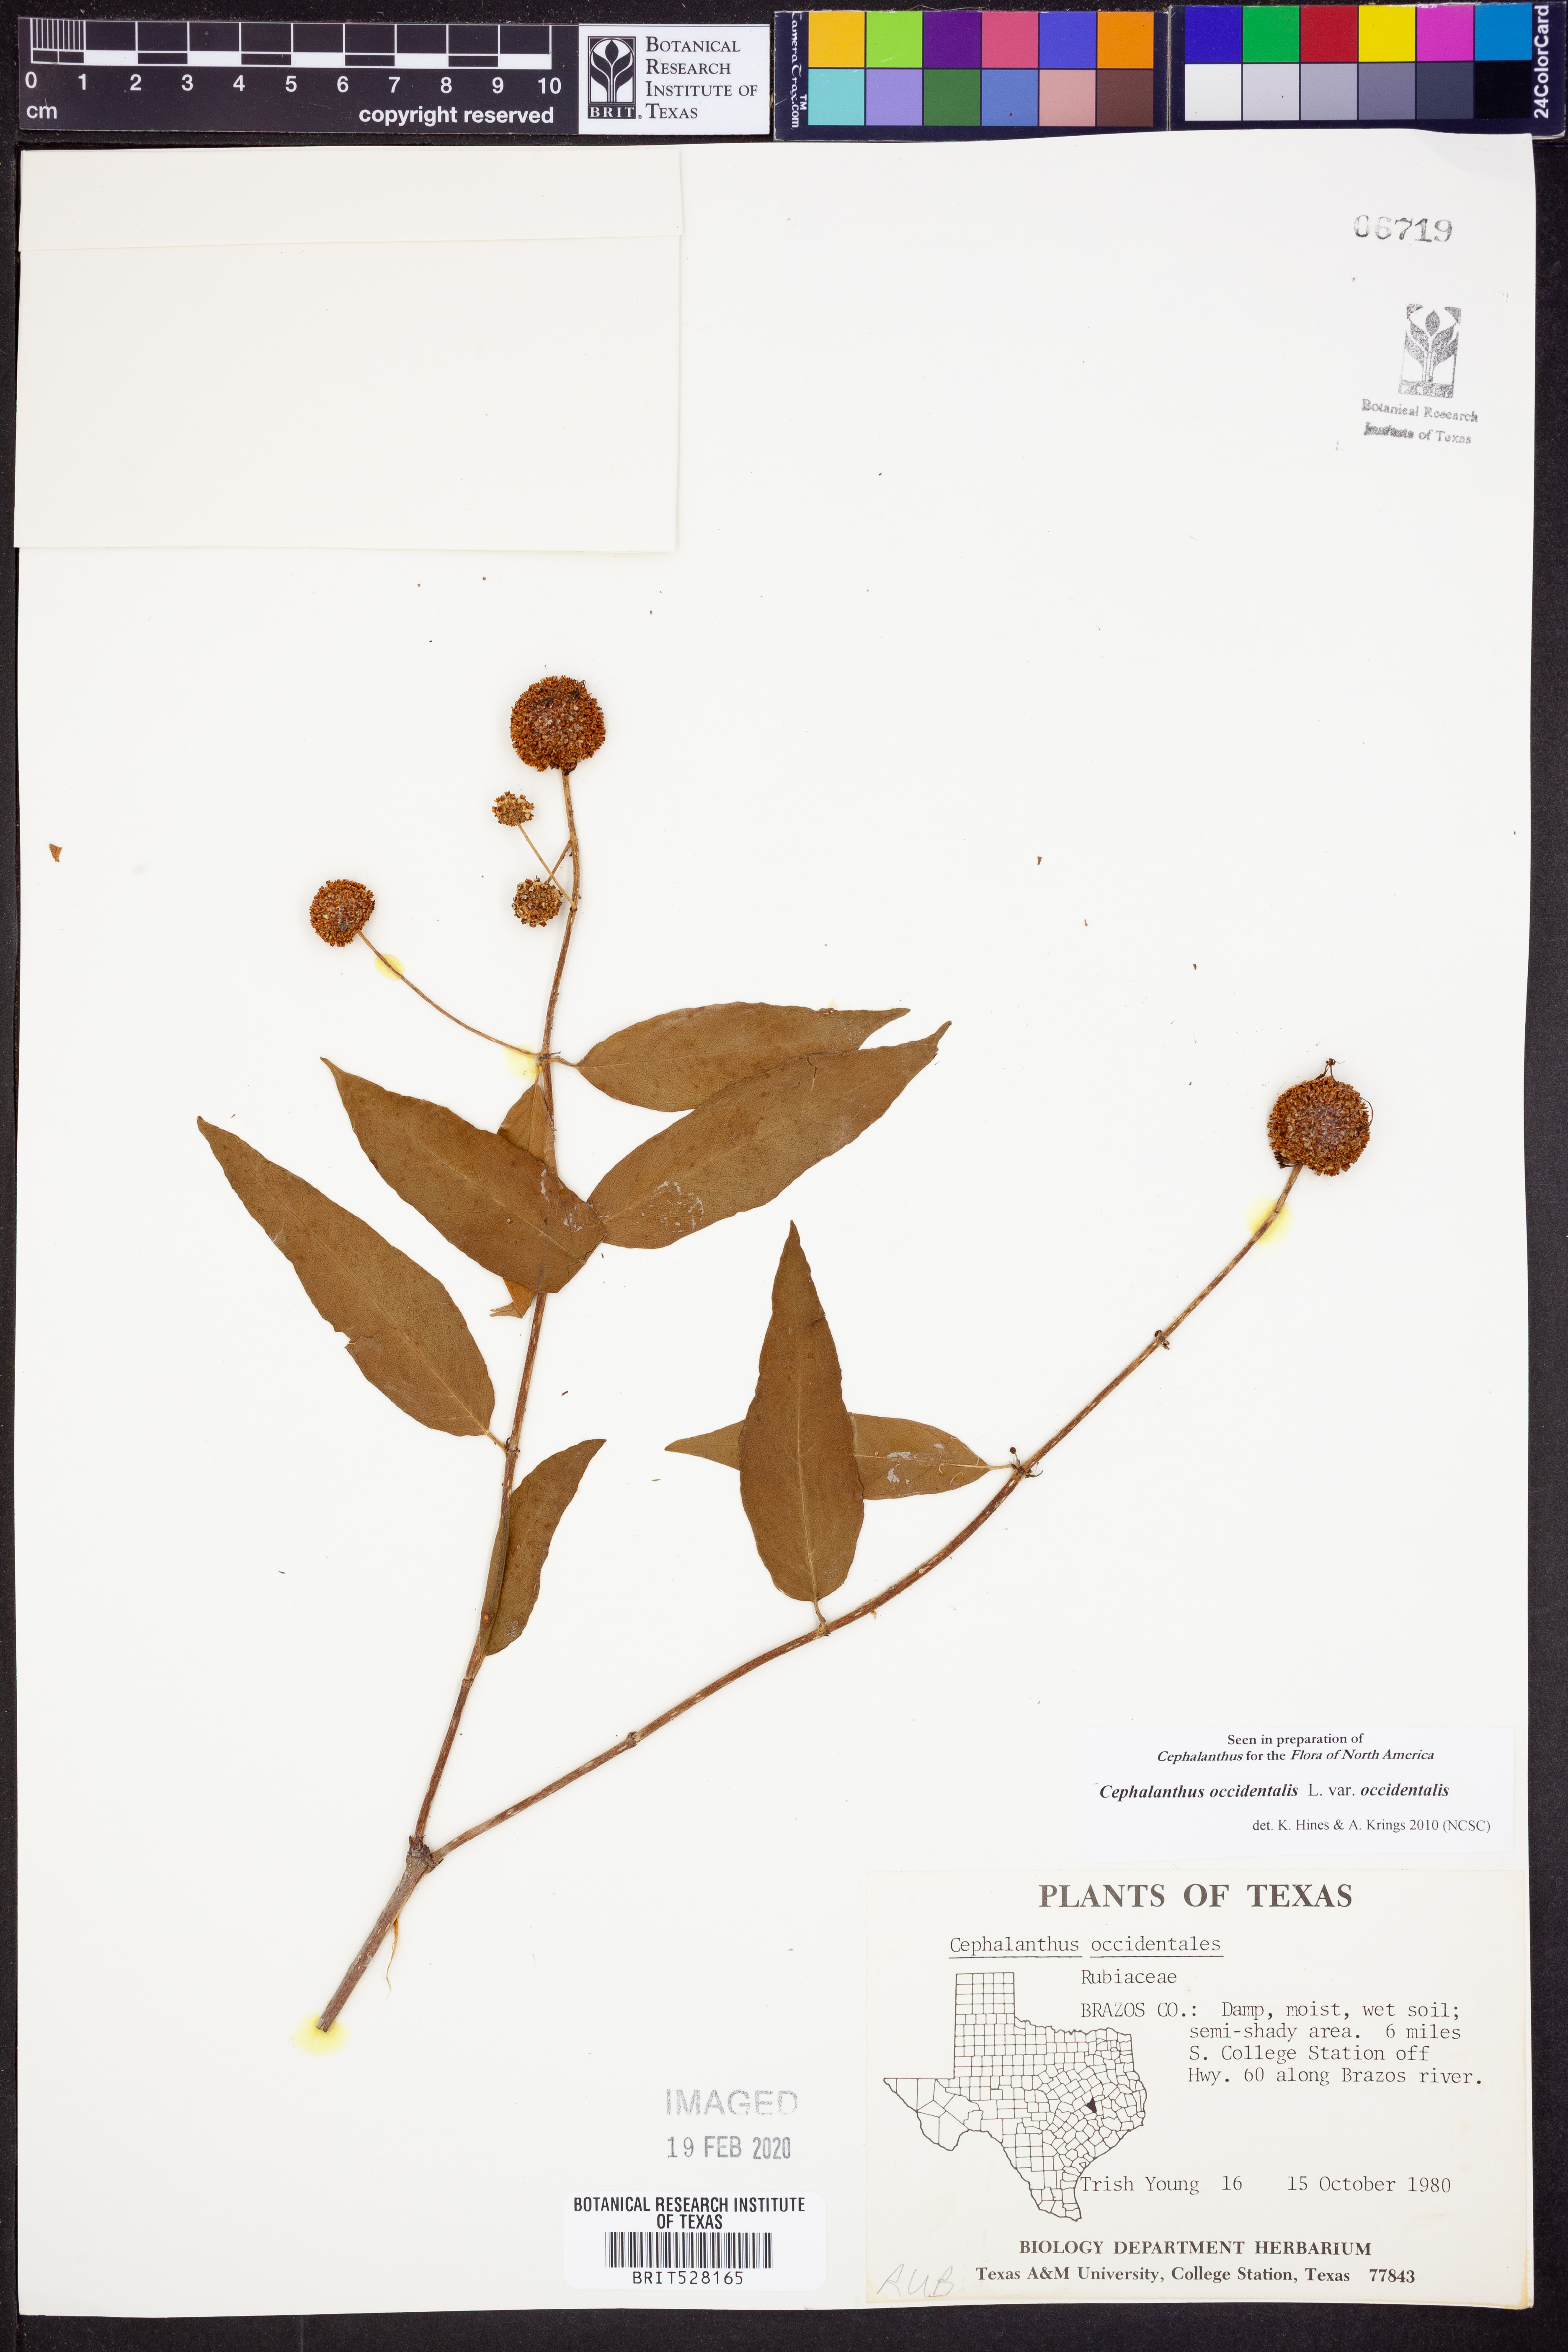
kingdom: Plantae
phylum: Tracheophyta
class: Magnoliopsida
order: Gentianales
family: Rubiaceae
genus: Cephalanthus
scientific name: Cephalanthus occidentalis
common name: Button-willow
